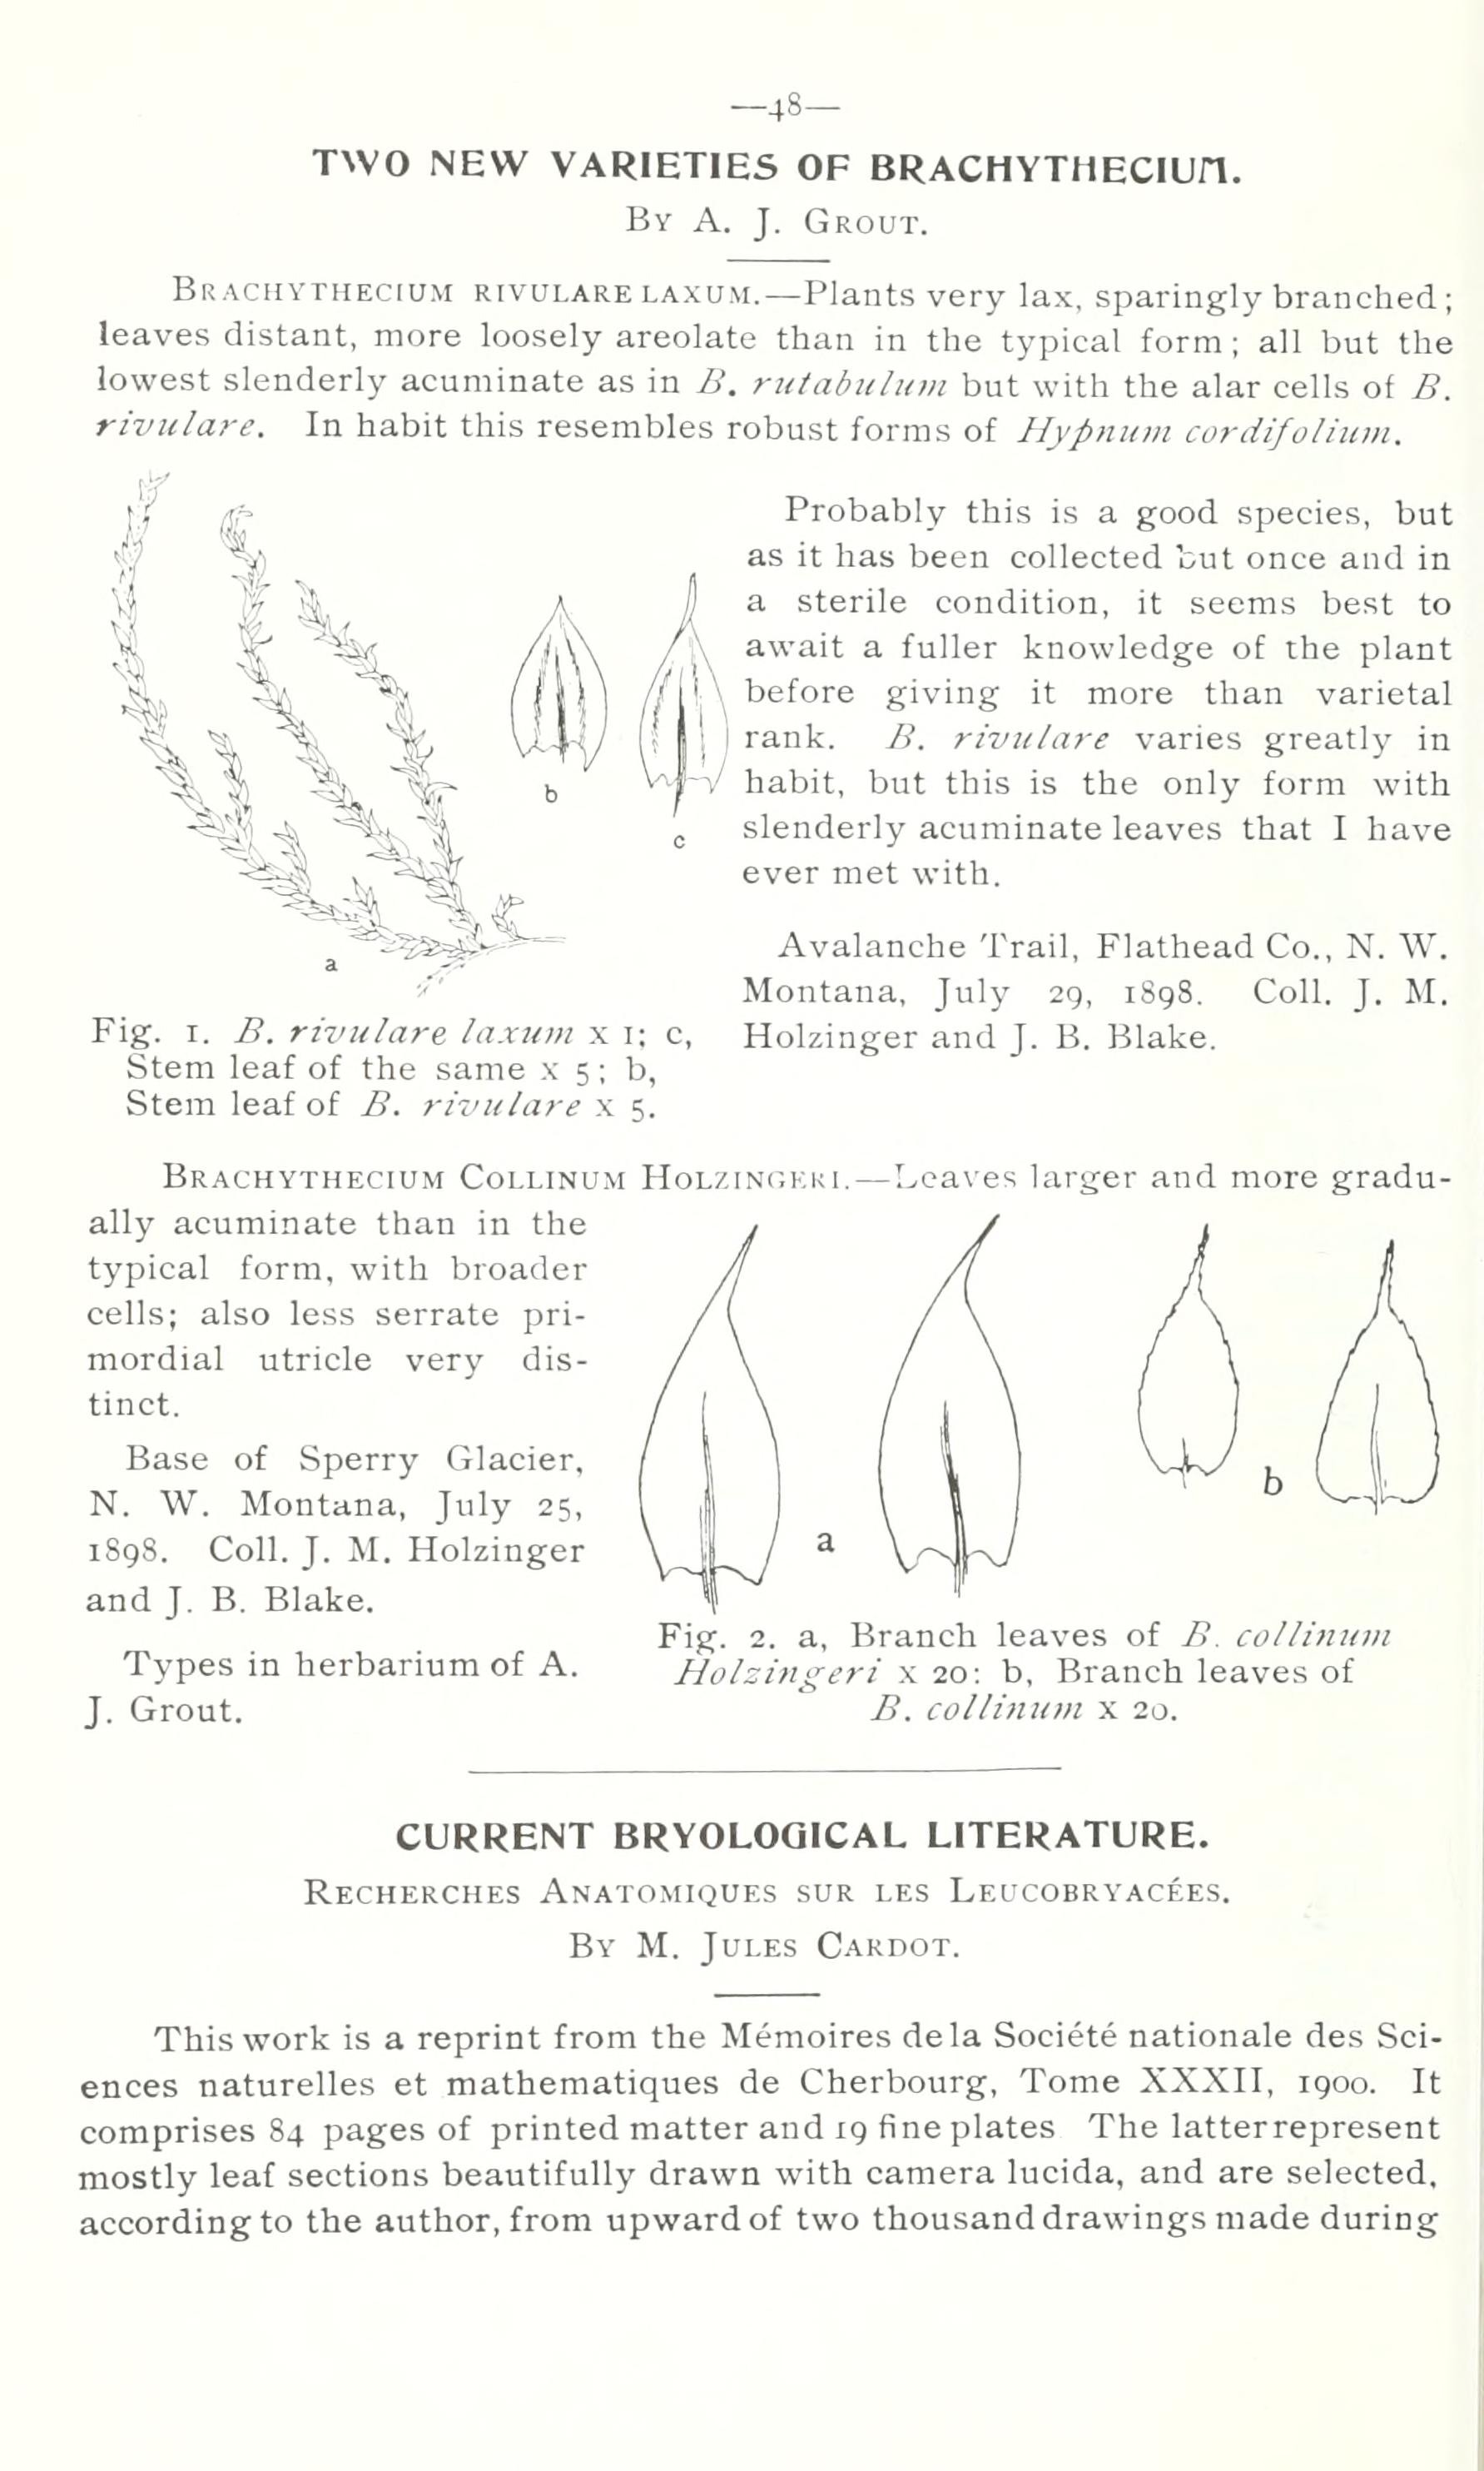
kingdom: Plantae
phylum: Bryophyta
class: Bryopsida
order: Hypnales
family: Brachytheciaceae
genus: Brachythecium
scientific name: Brachythecium rivulare
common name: River ragged moss
